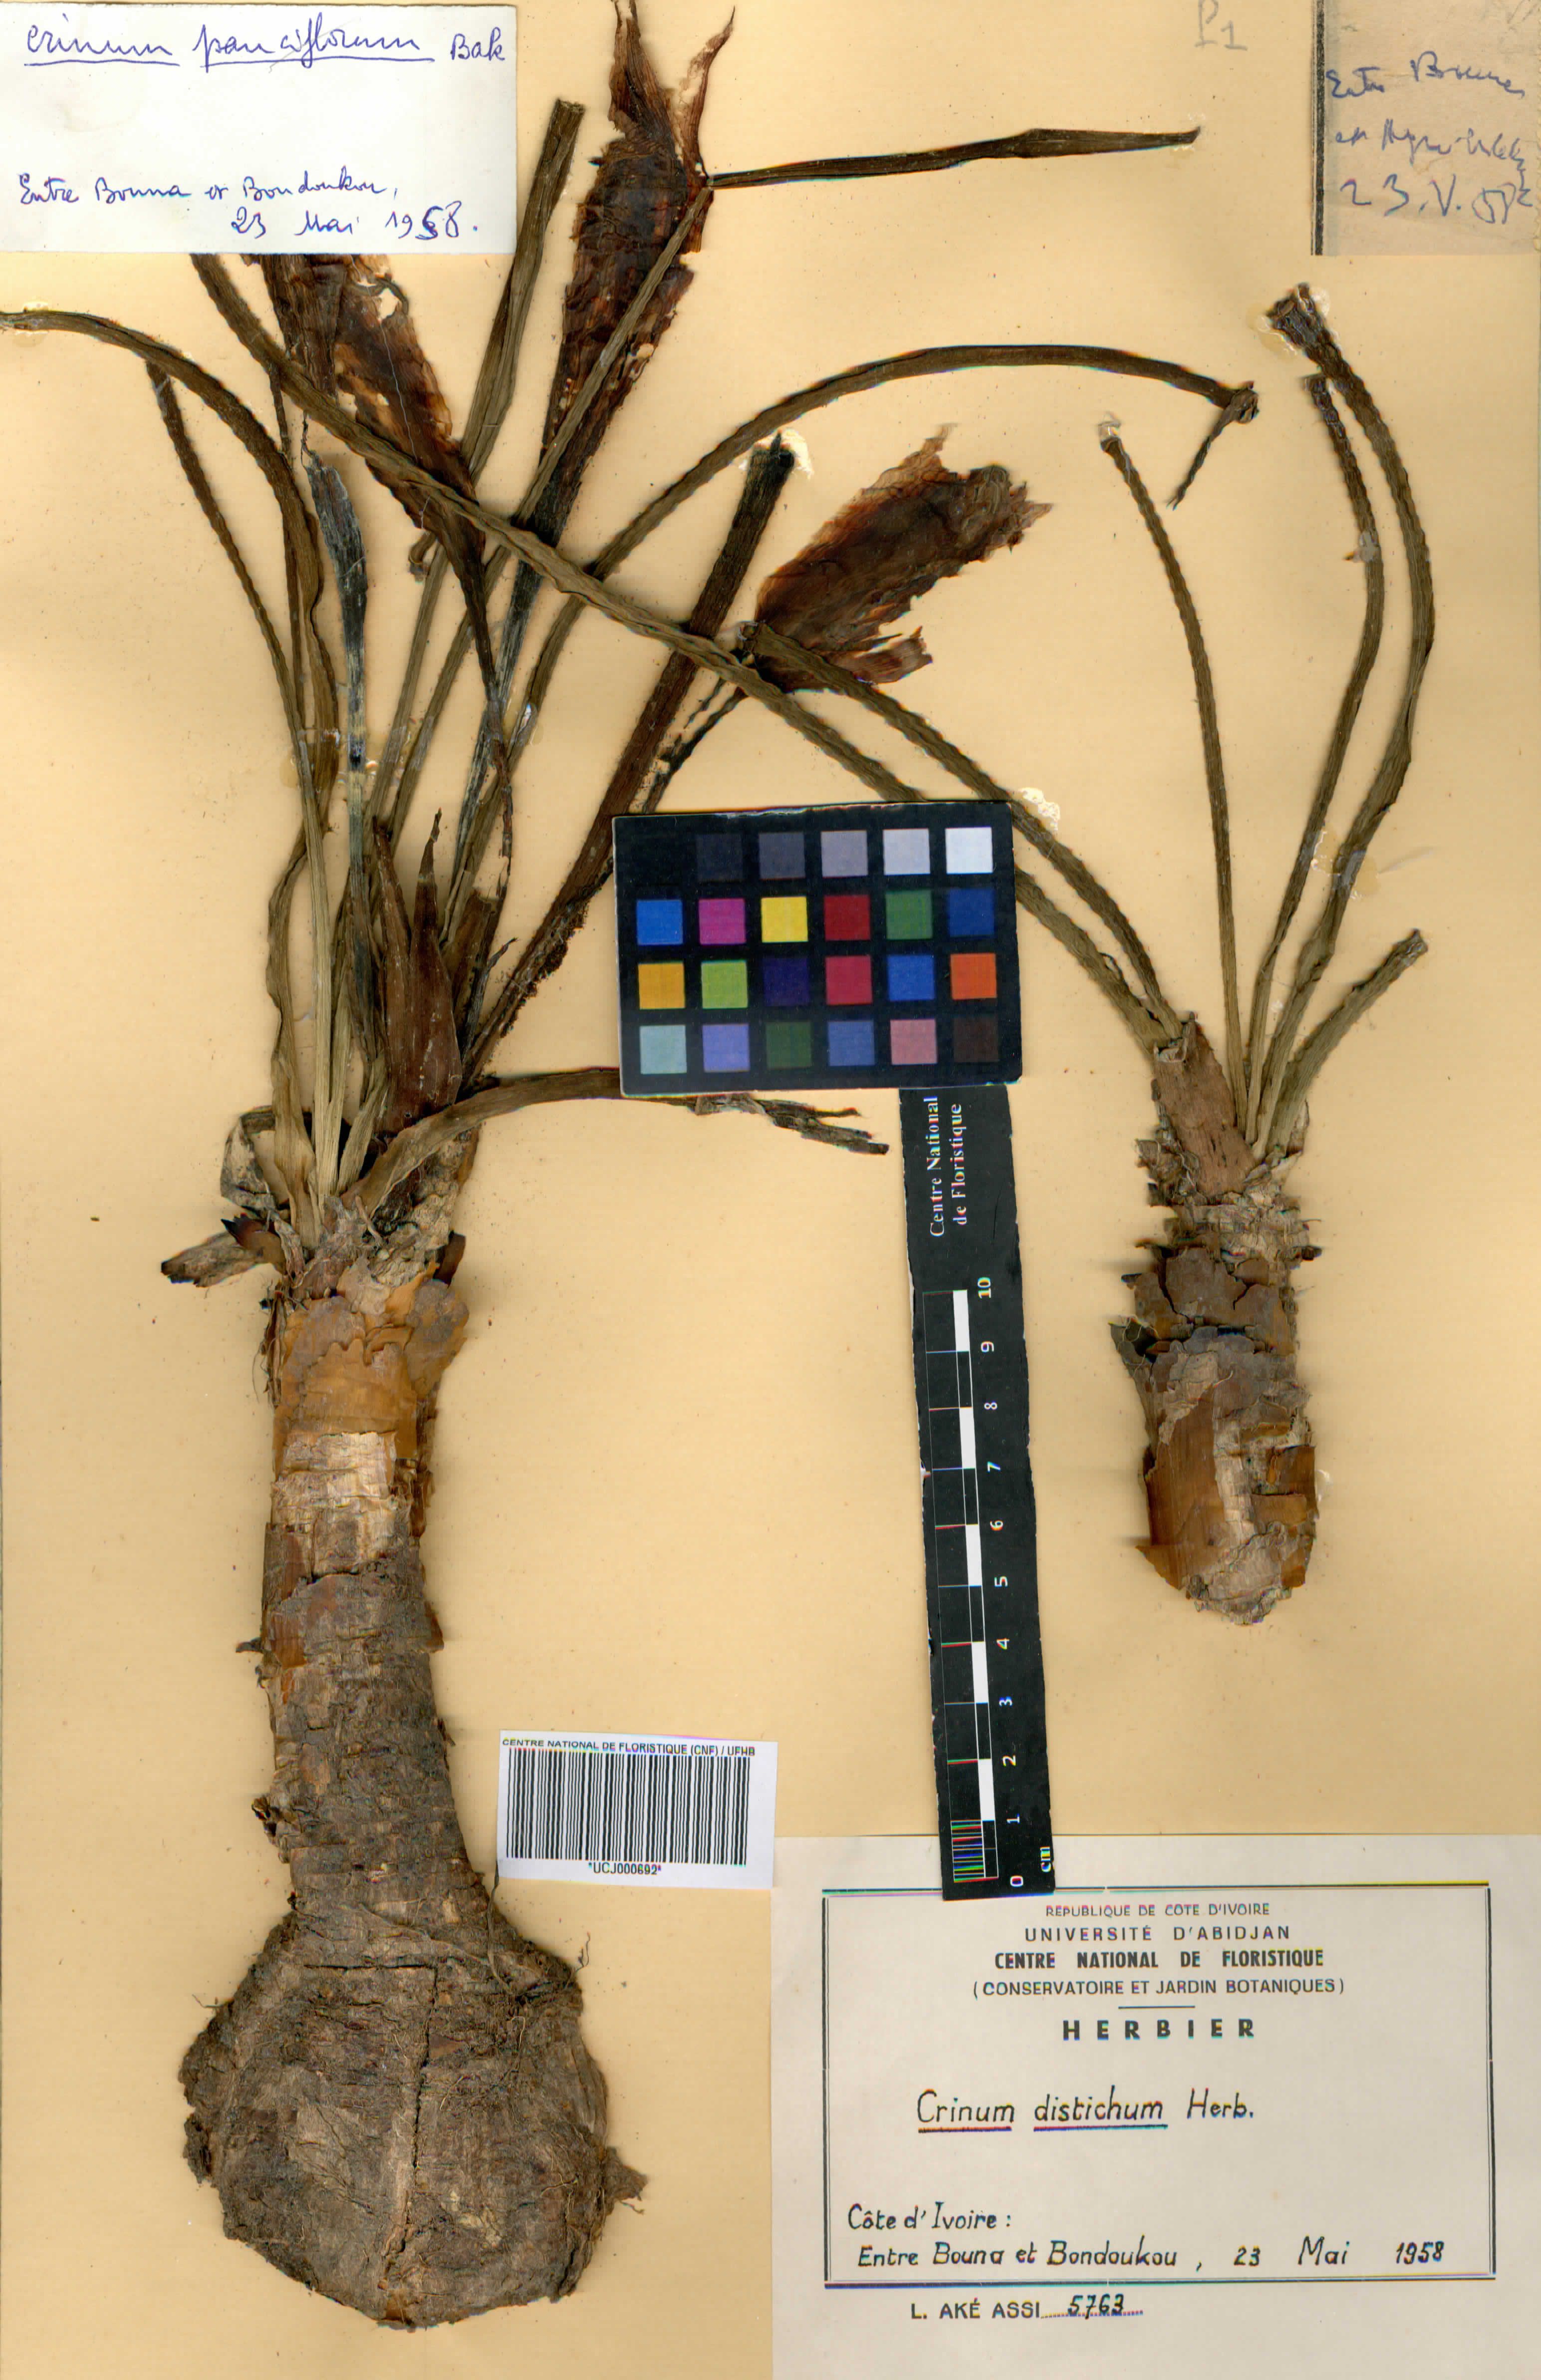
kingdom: Plantae
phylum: Tracheophyta
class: Liliopsida
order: Asparagales
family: Amaryllidaceae
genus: Crinum
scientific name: Crinum
